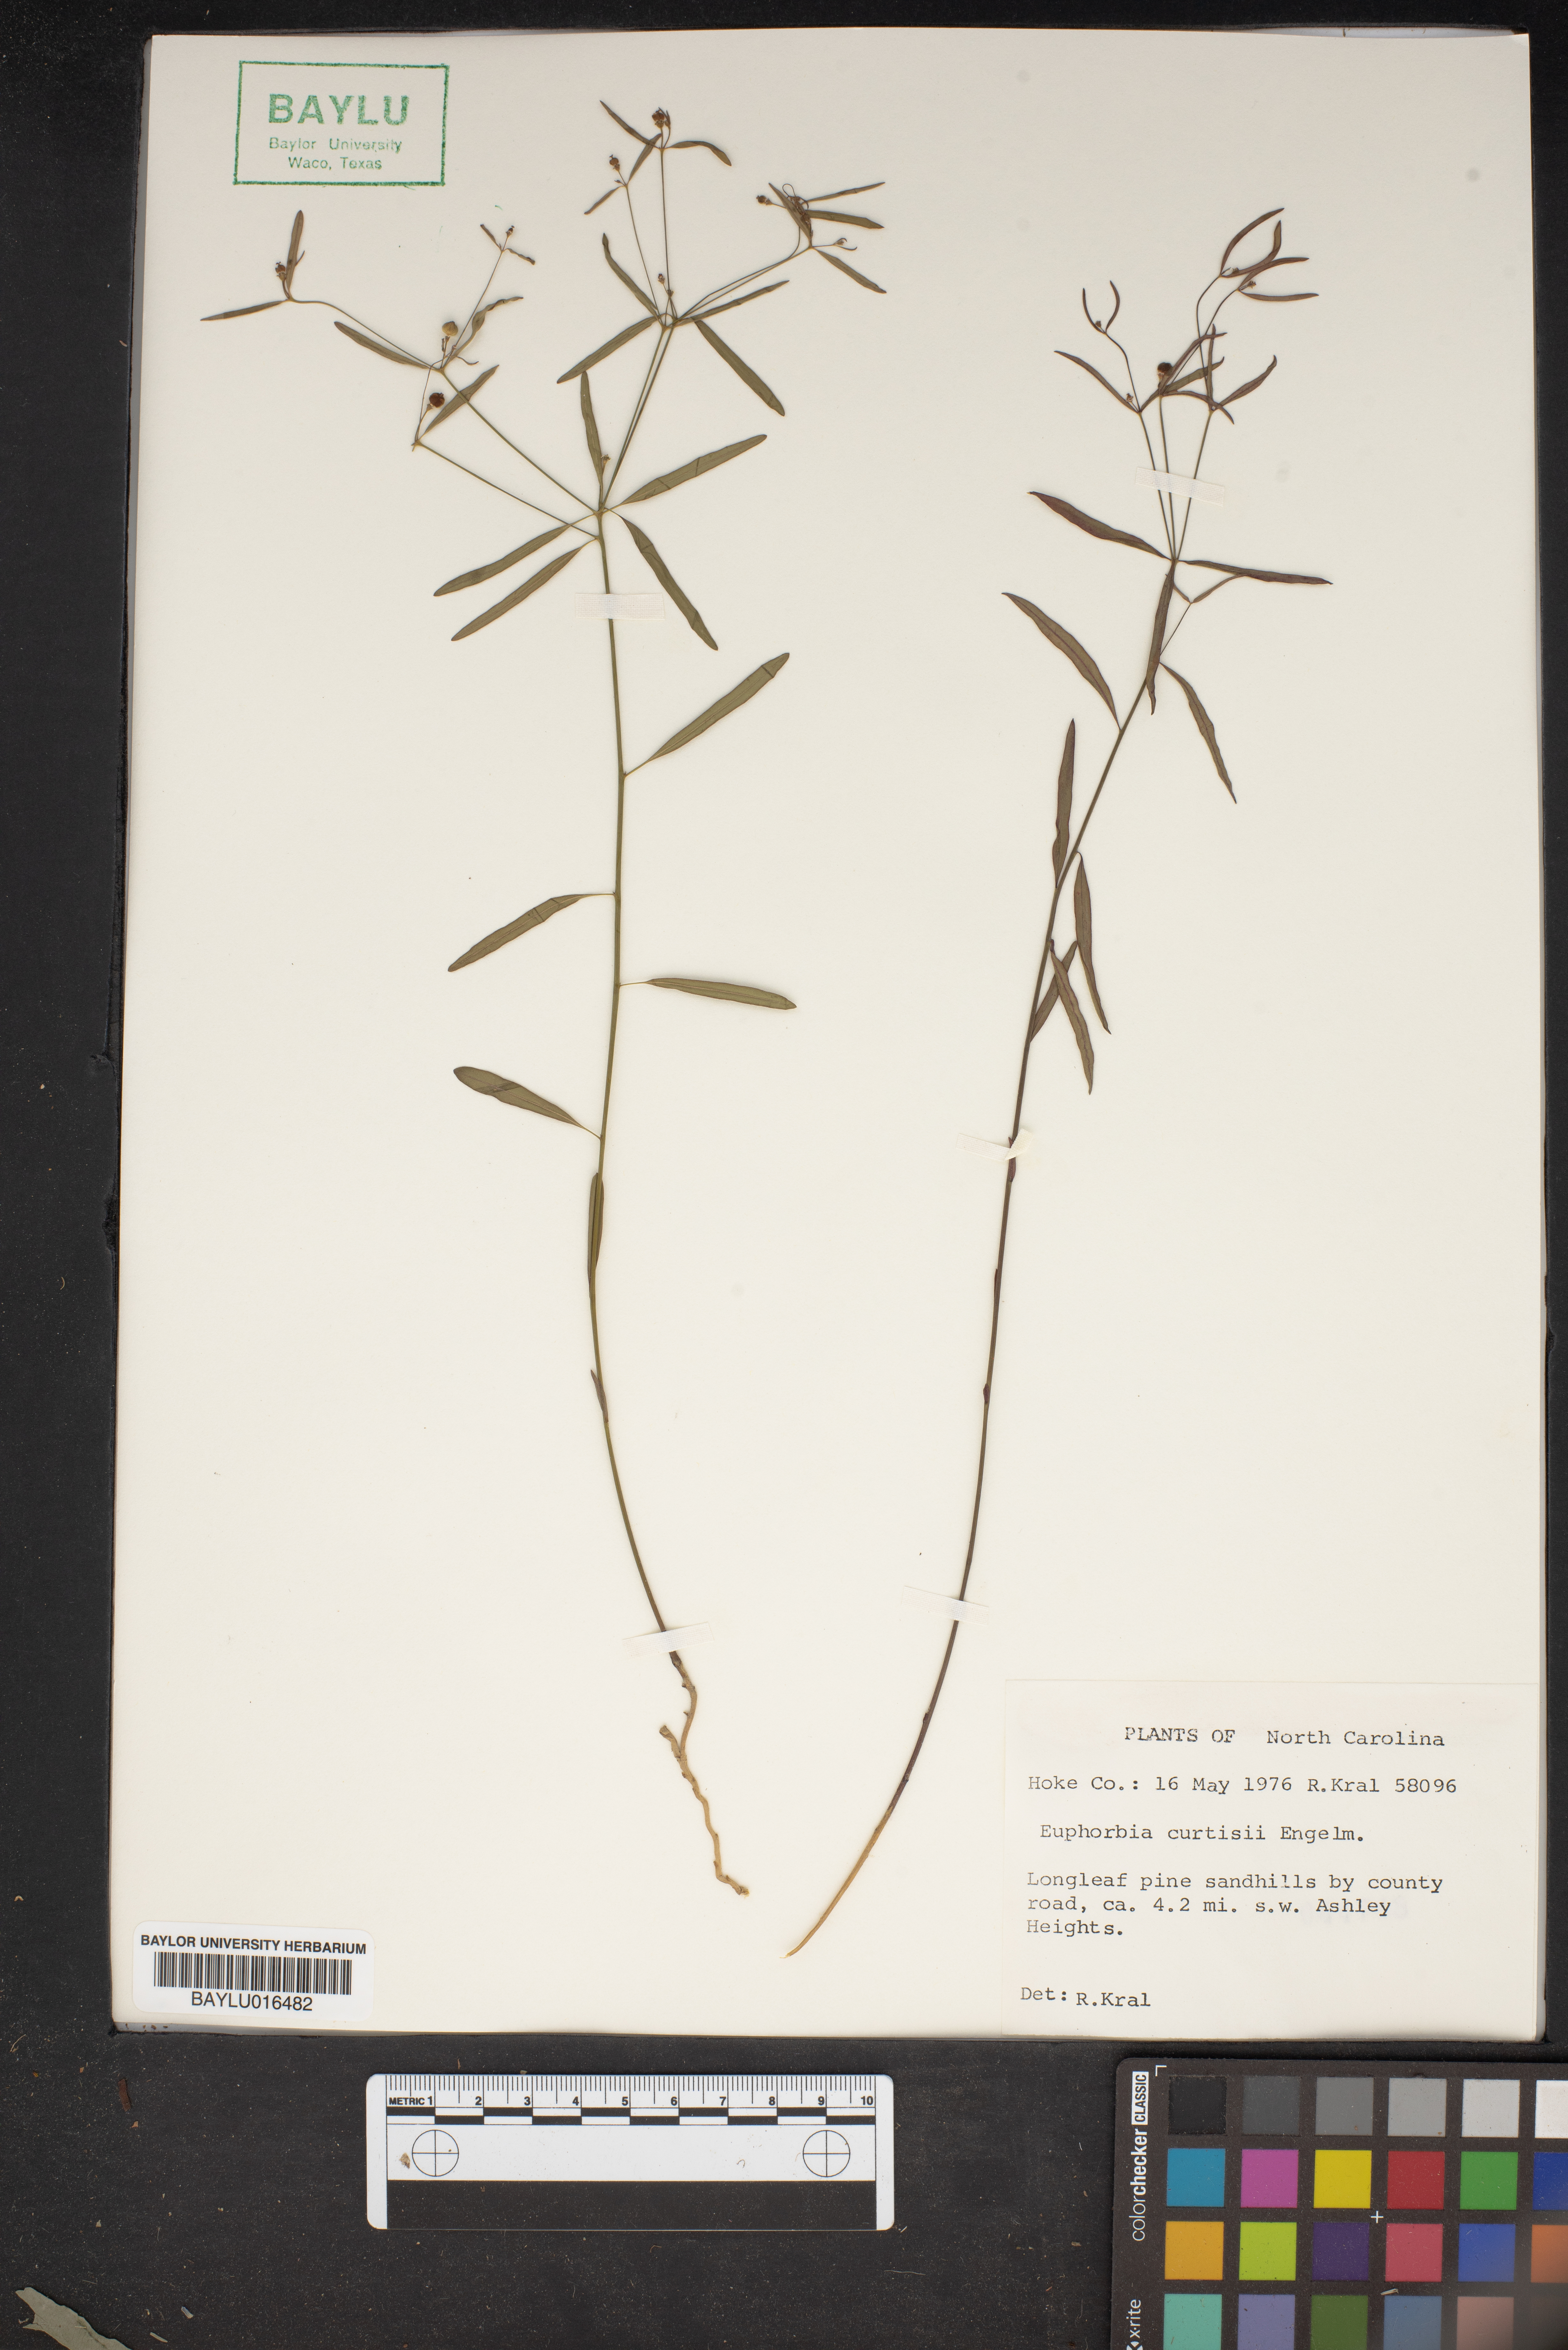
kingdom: Plantae
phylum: Tracheophyta
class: Magnoliopsida
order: Malpighiales
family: Euphorbiaceae
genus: Euphorbia
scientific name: Euphorbia curtisii
